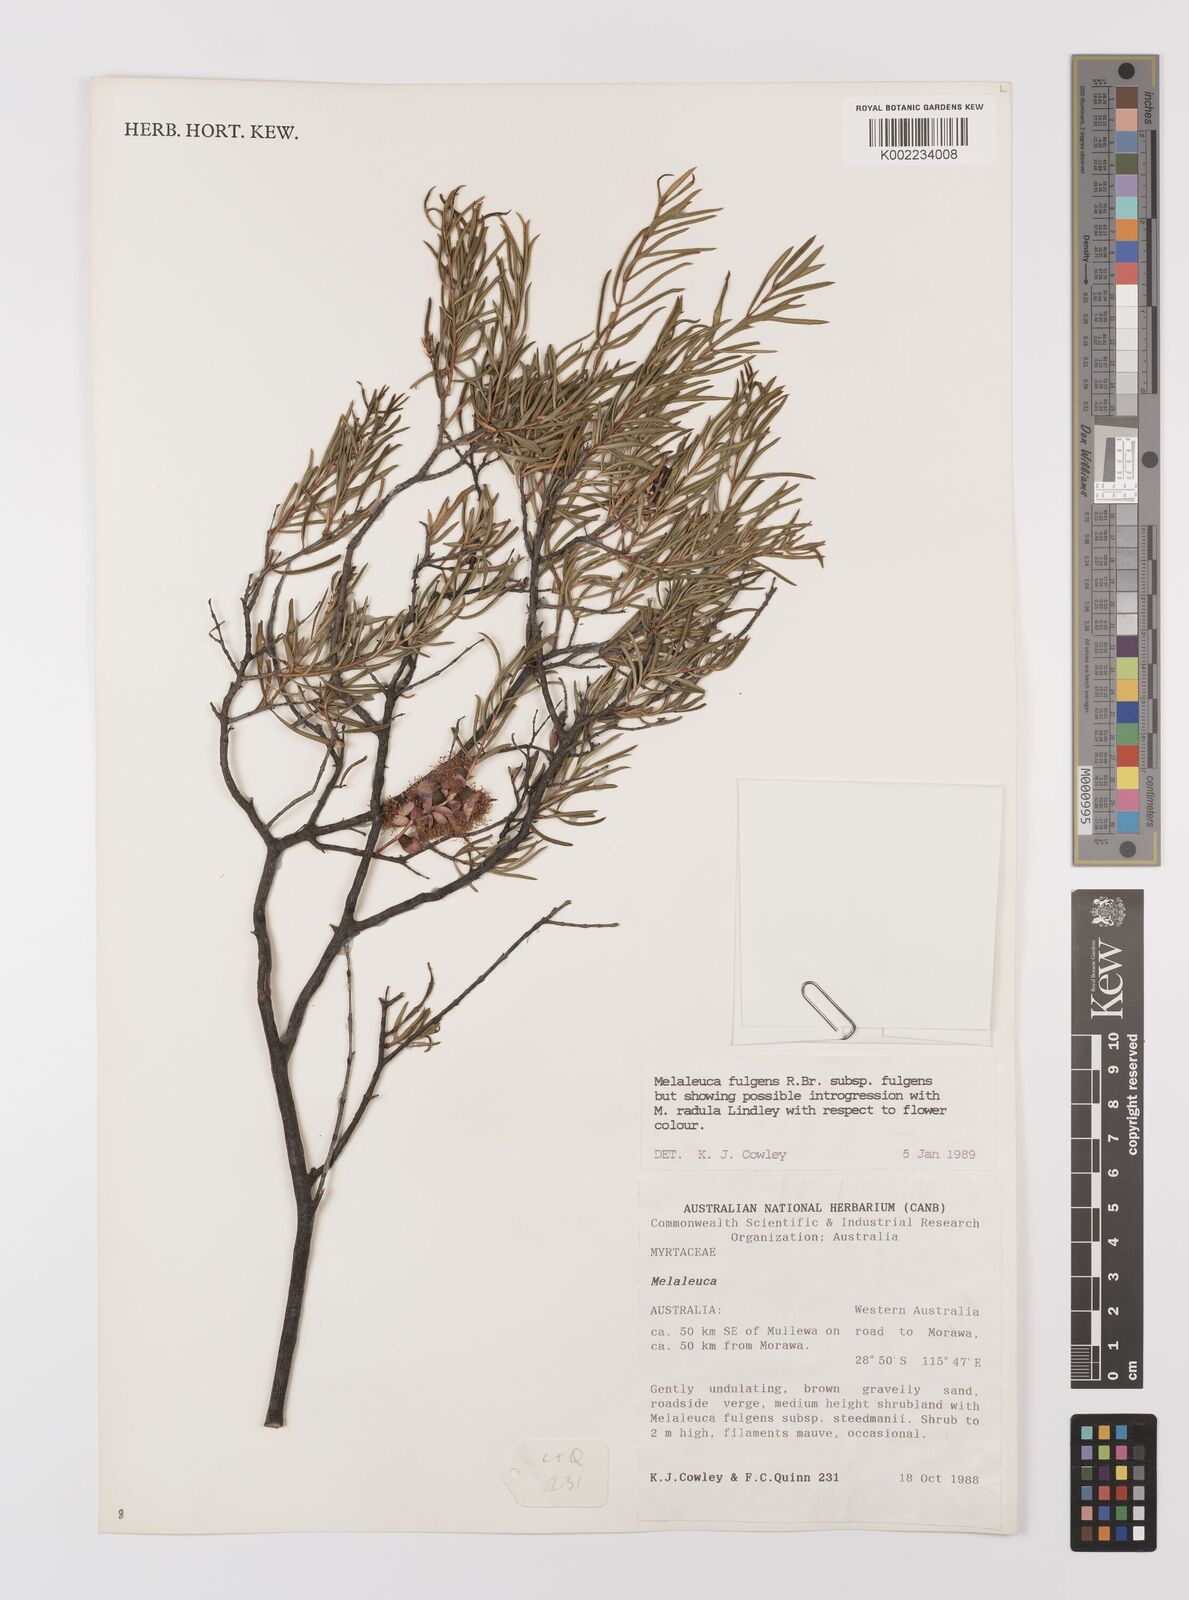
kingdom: Plantae
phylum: Tracheophyta
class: Magnoliopsida
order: Myrtales
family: Myrtaceae
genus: Melaleuca
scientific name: Melaleuca fulgens
